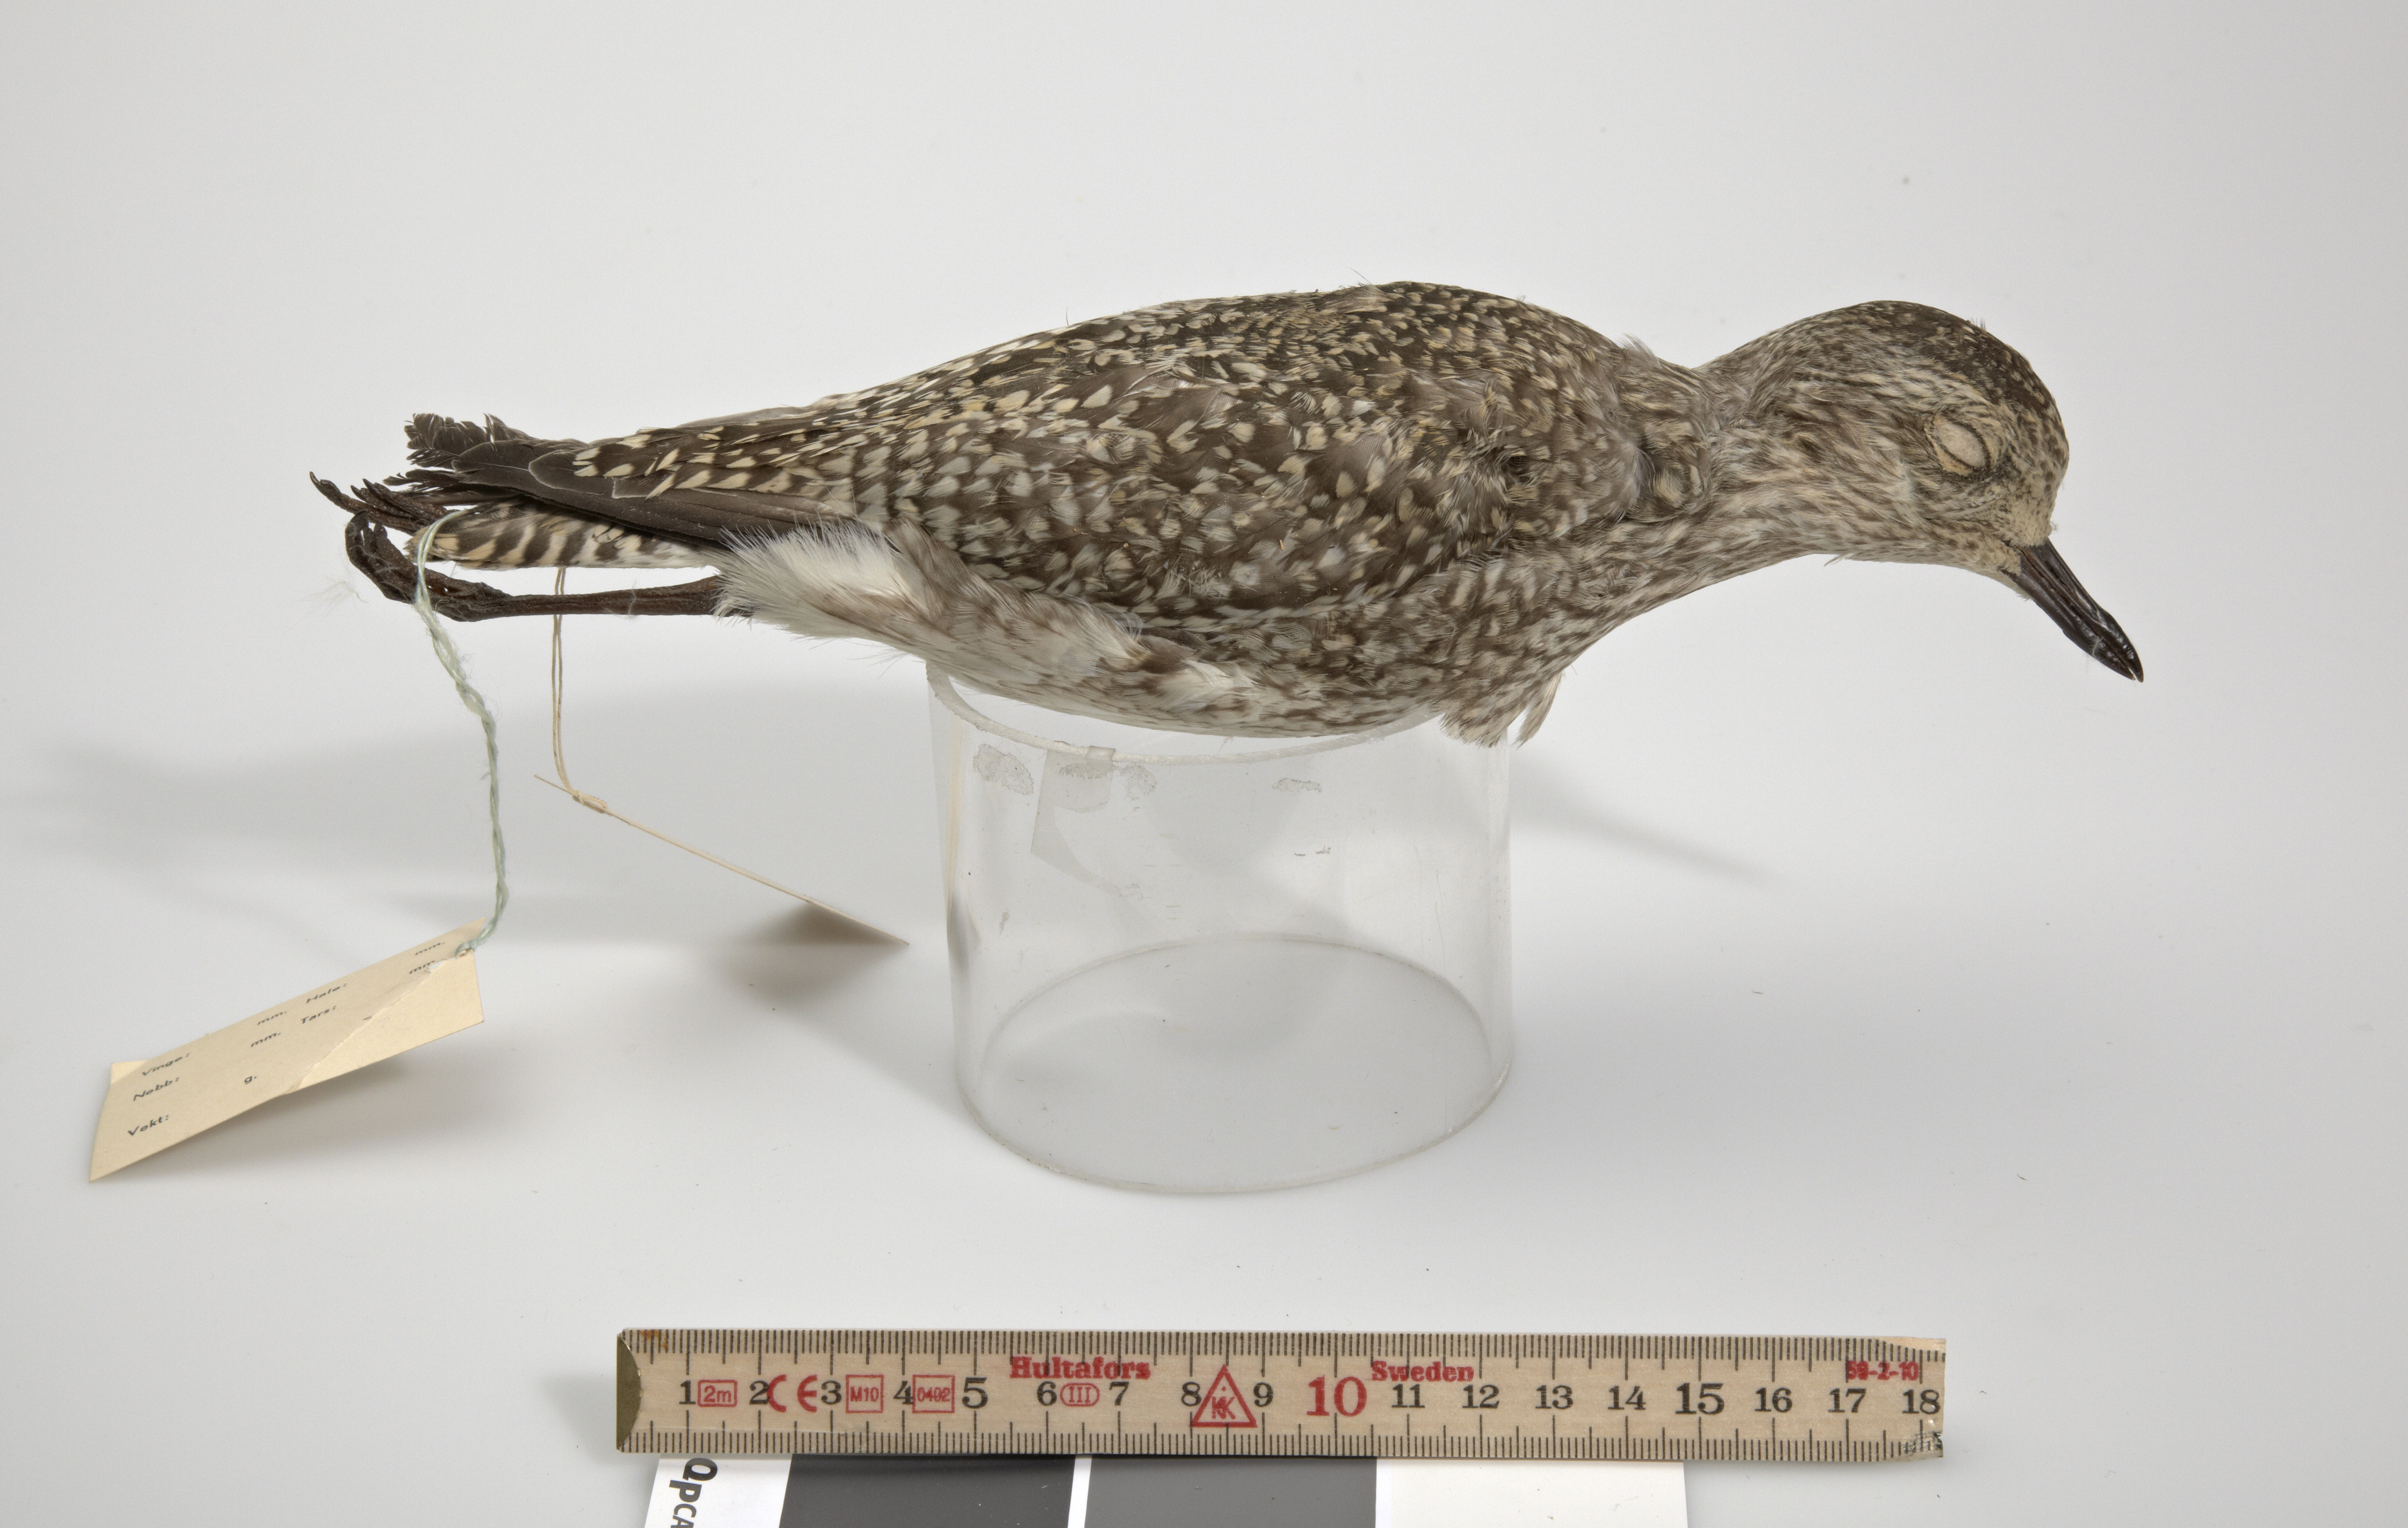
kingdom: Animalia
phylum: Chordata
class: Aves
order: Charadriiformes
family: Charadriidae
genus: Pluvialis
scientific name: Pluvialis squatarola
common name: Grey plover
